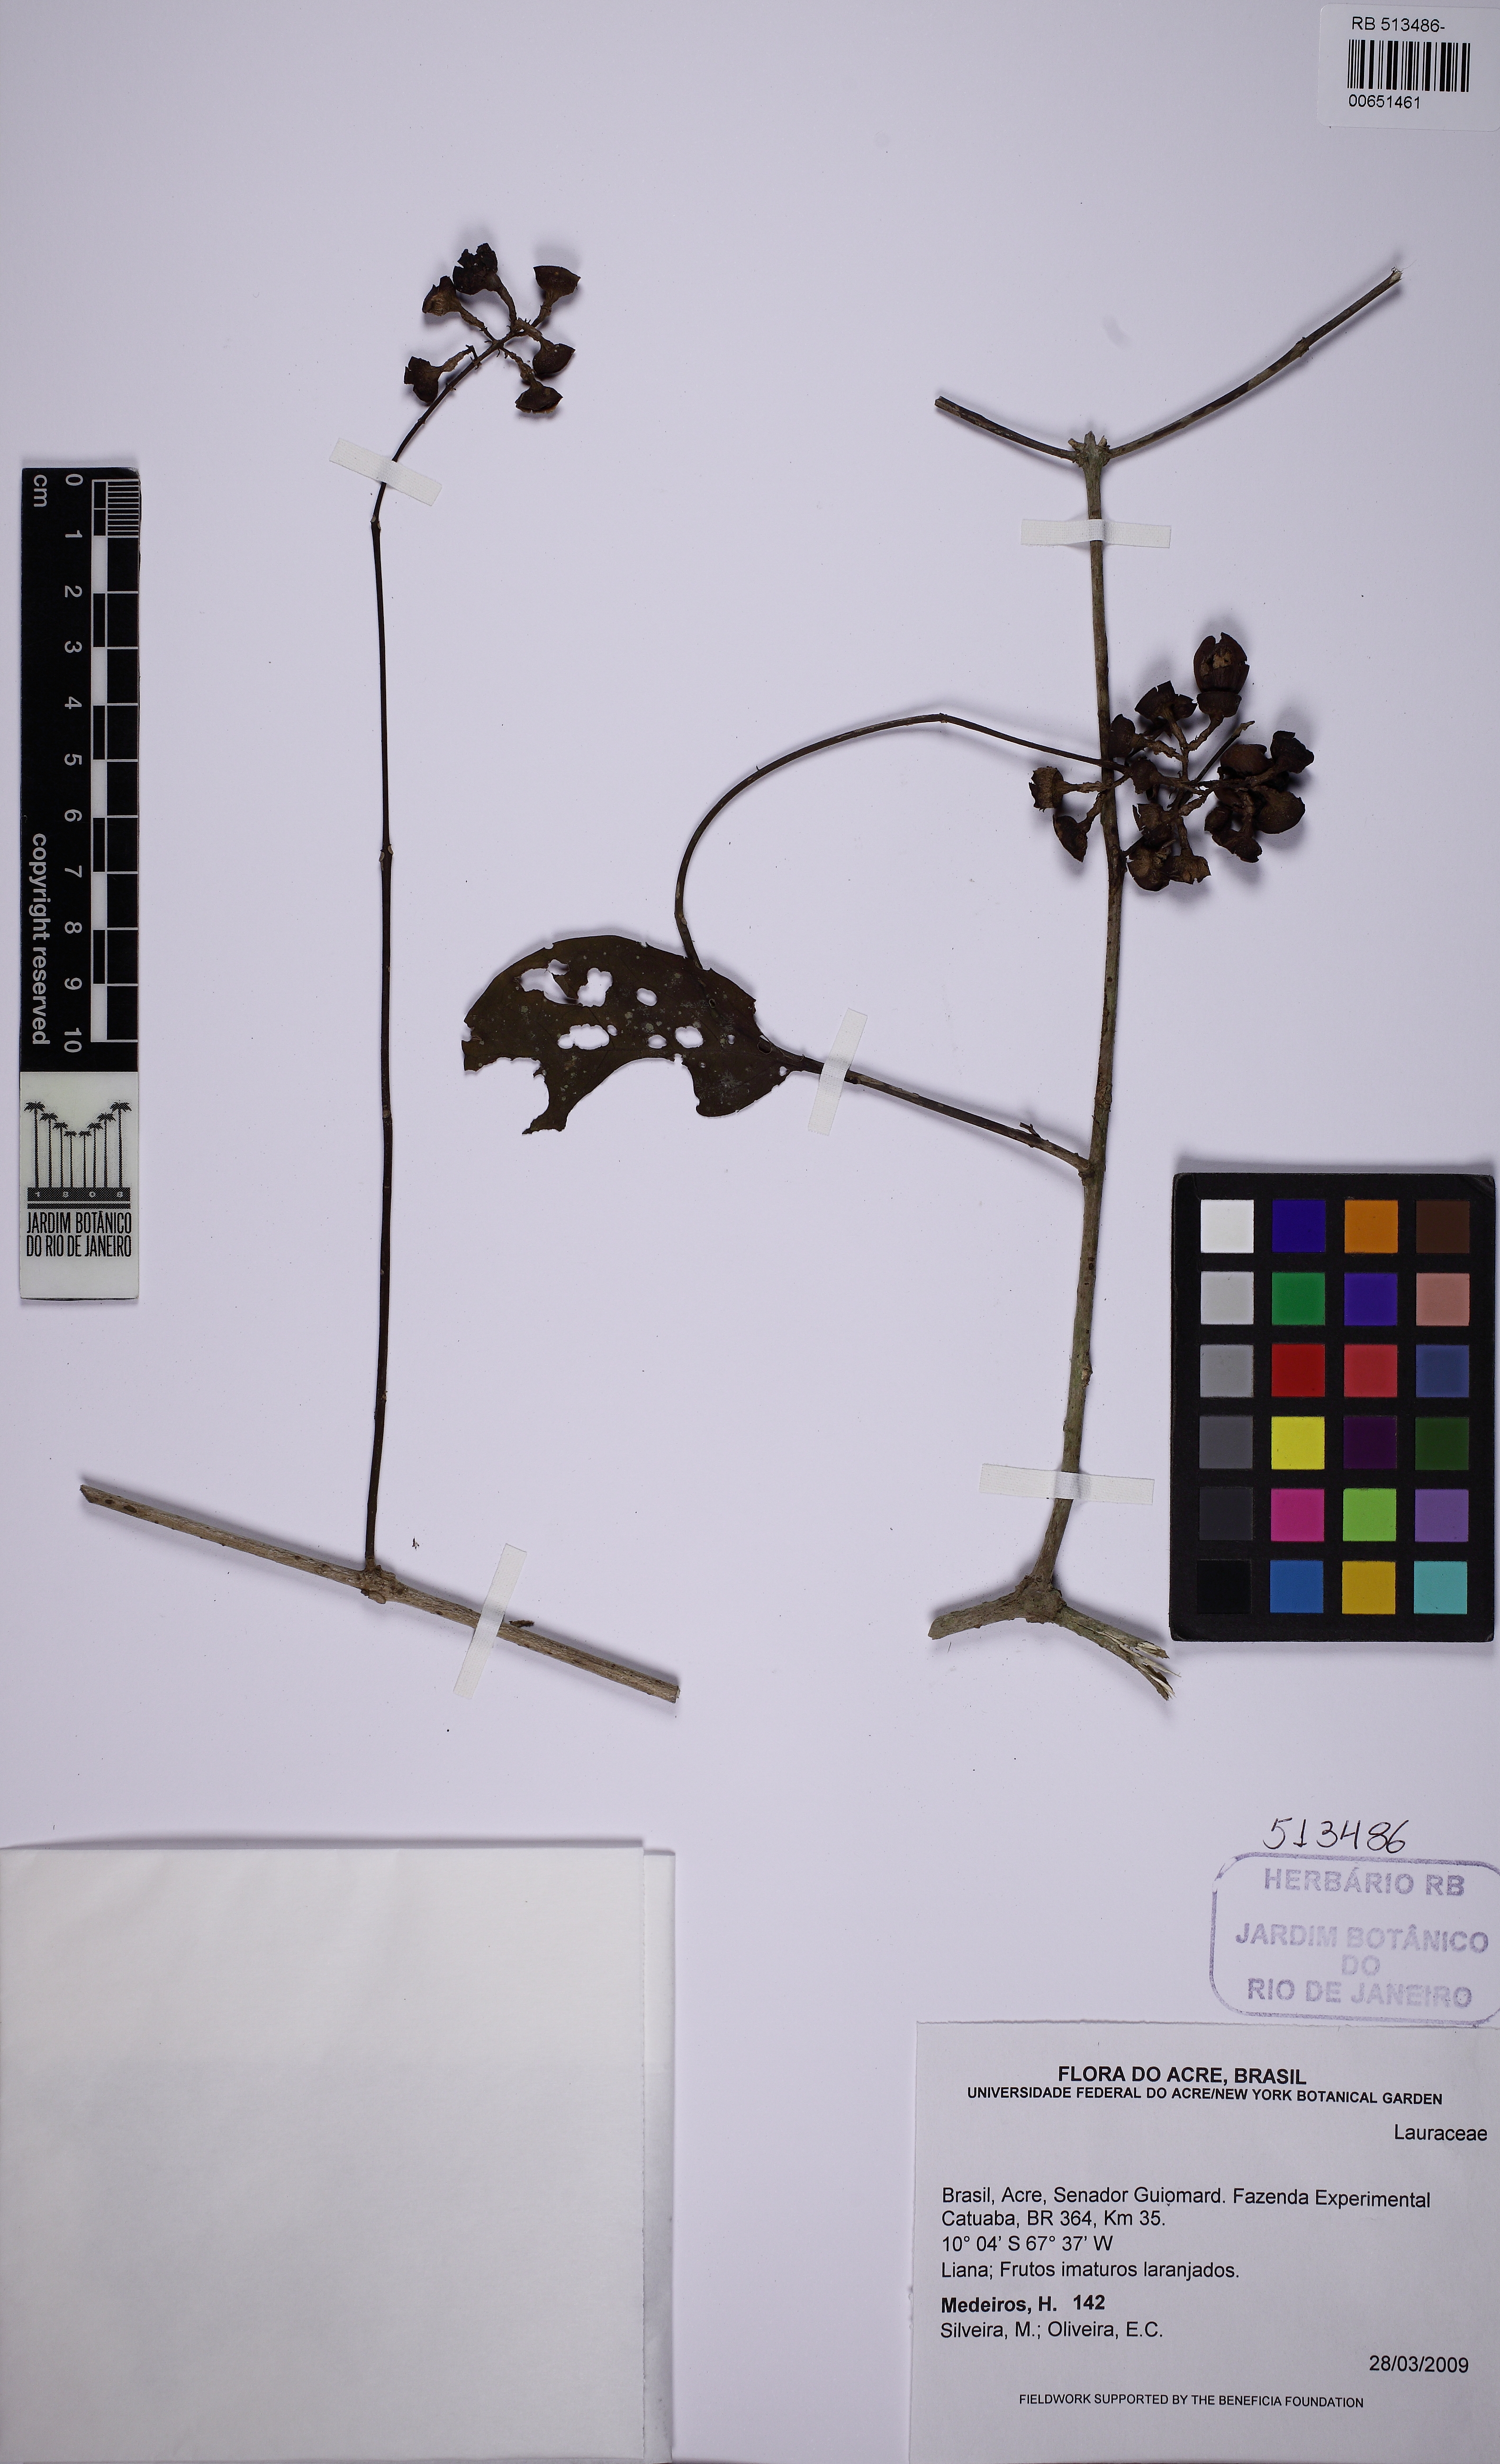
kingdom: Plantae
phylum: Tracheophyta
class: Magnoliopsida
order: Lamiales
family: Lamiaceae
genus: Aegiphila
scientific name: Aegiphila
